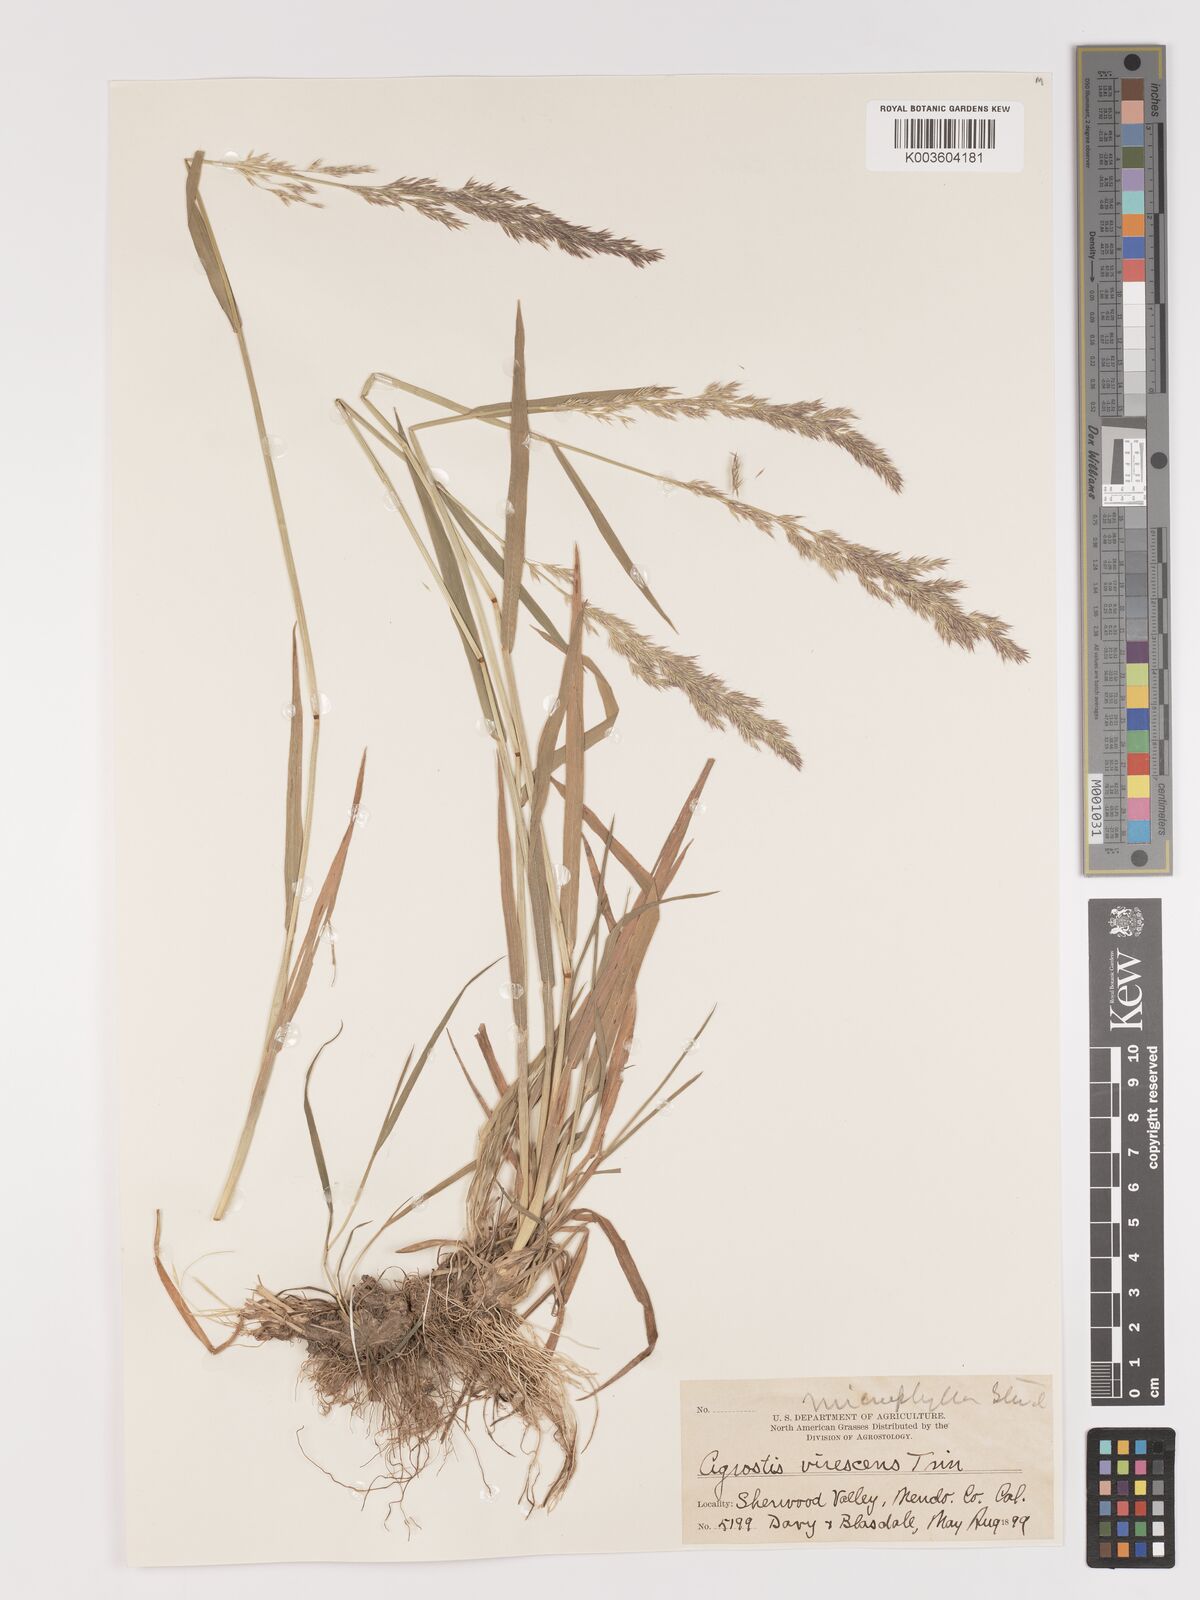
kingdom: Plantae
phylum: Tracheophyta
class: Liliopsida
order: Poales
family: Poaceae
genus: Agrostis
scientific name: Agrostis microphylla
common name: Small-leaf bent
